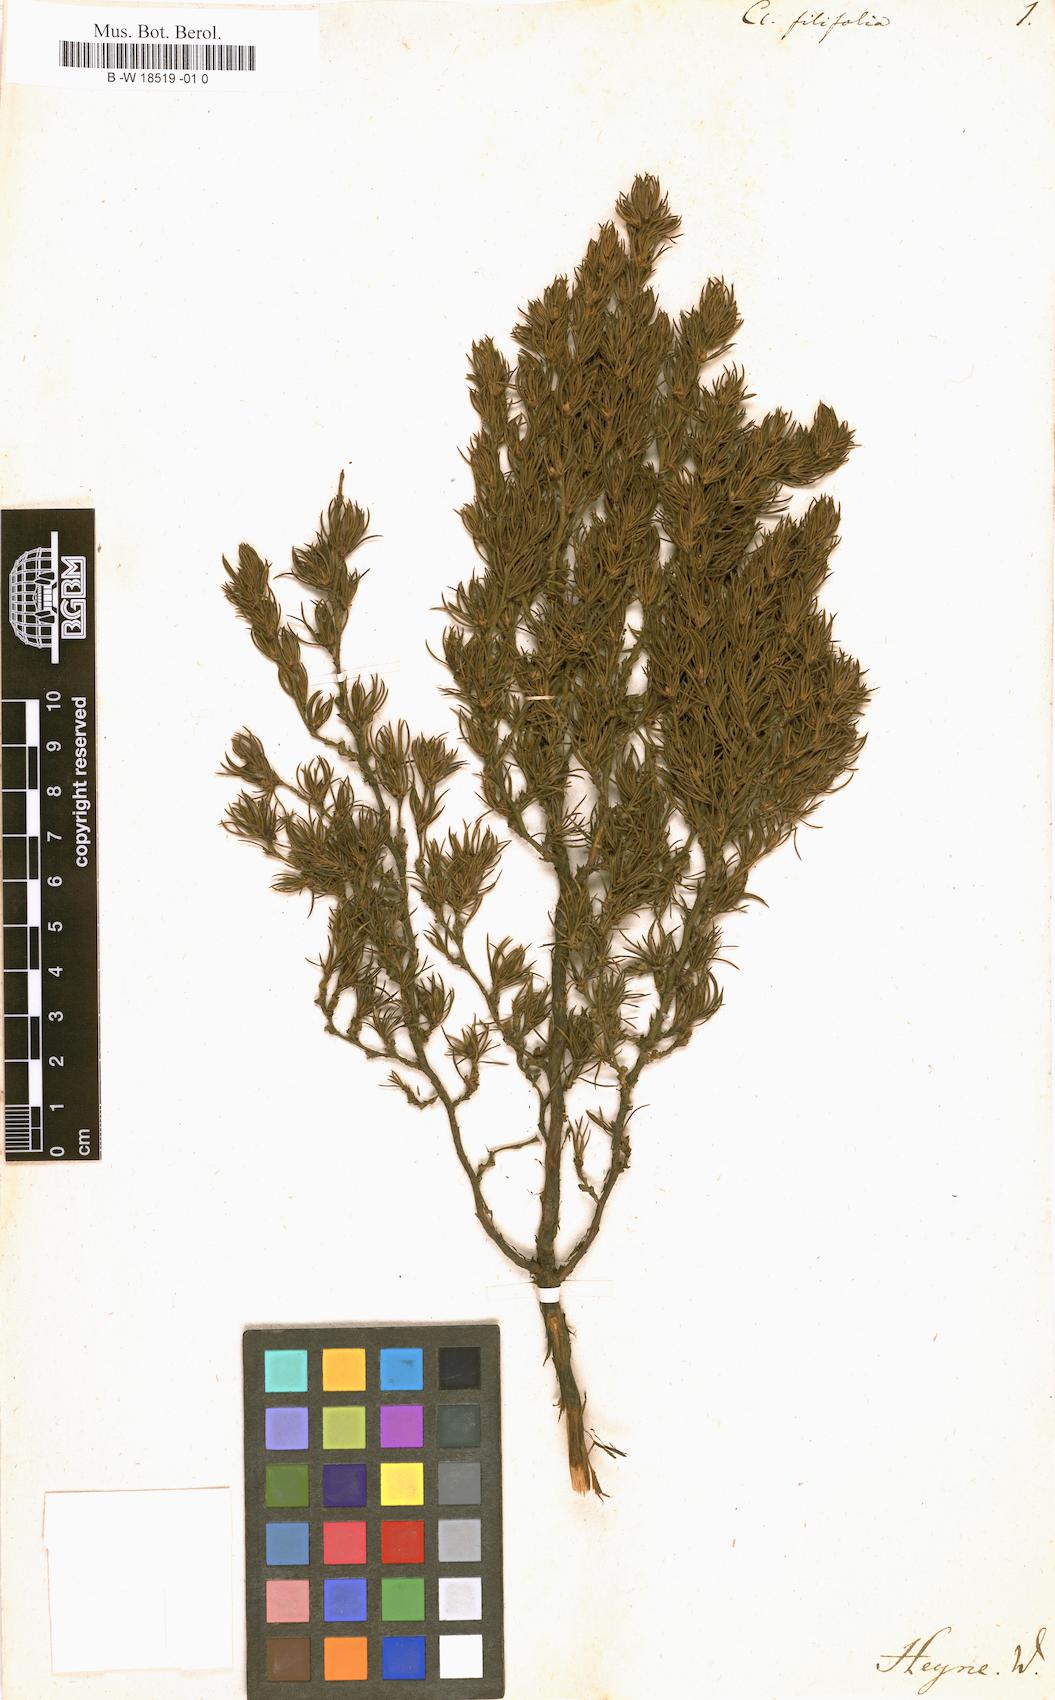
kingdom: Plantae
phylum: Tracheophyta
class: Magnoliopsida
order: Rosales
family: Rosaceae
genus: Cliffortia
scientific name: Cliffortia filifolia
